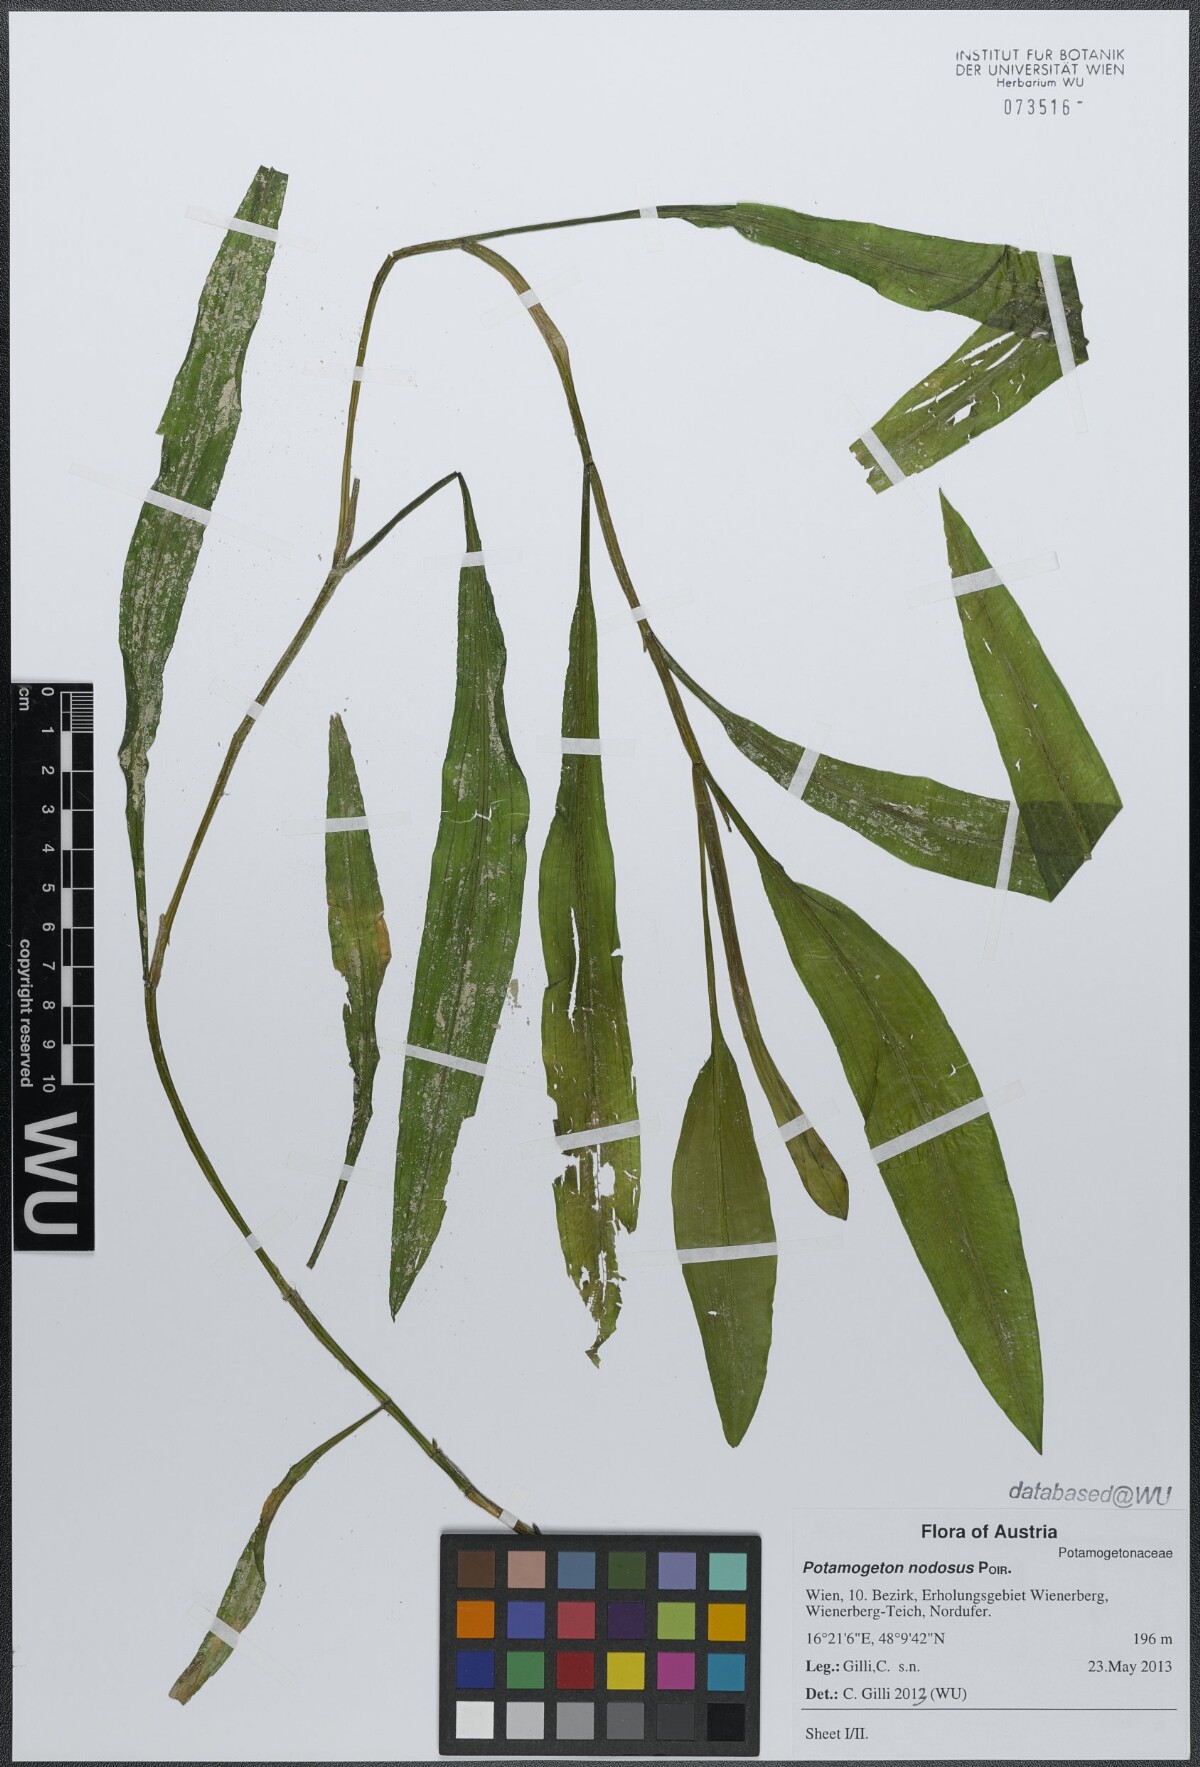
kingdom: Plantae
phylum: Tracheophyta
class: Liliopsida
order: Alismatales
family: Potamogetonaceae
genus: Potamogeton
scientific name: Potamogeton nodosus
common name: Loddon pondweed
